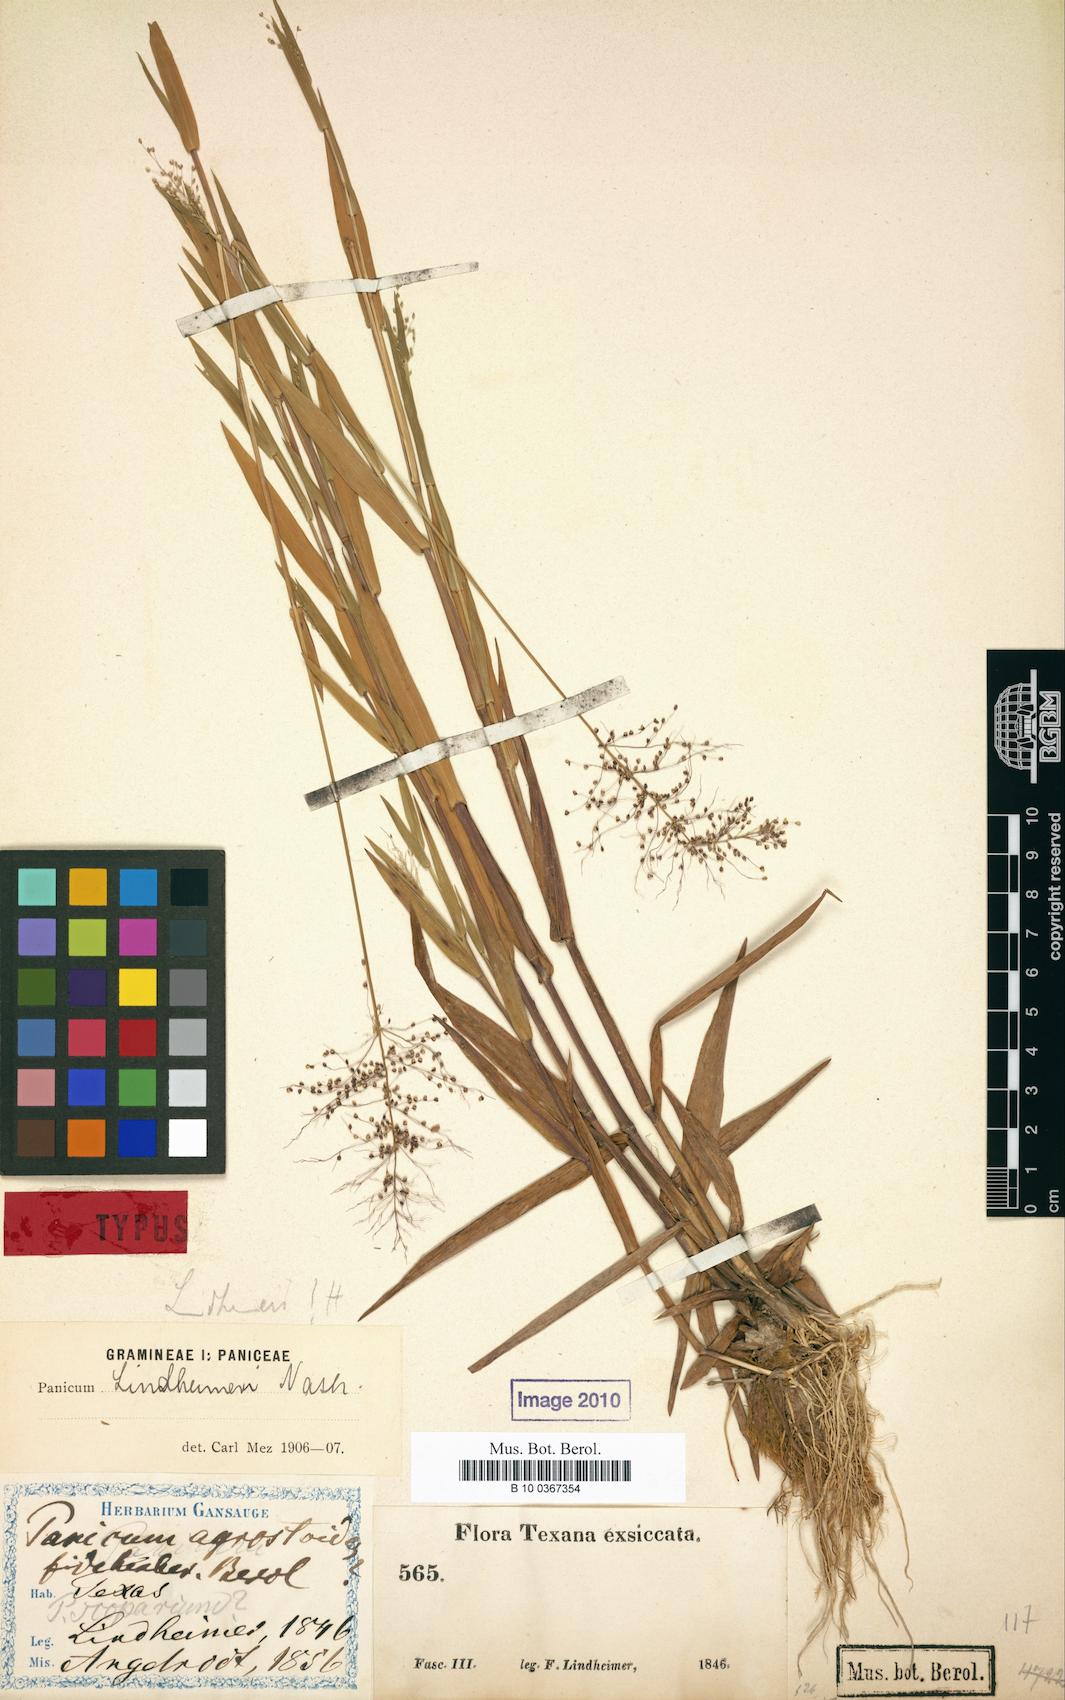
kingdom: Plantae
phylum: Tracheophyta
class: Liliopsida
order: Poales
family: Poaceae
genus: Dichanthelium
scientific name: Dichanthelium lindheimeri
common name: Lindheimer's panicgrass
